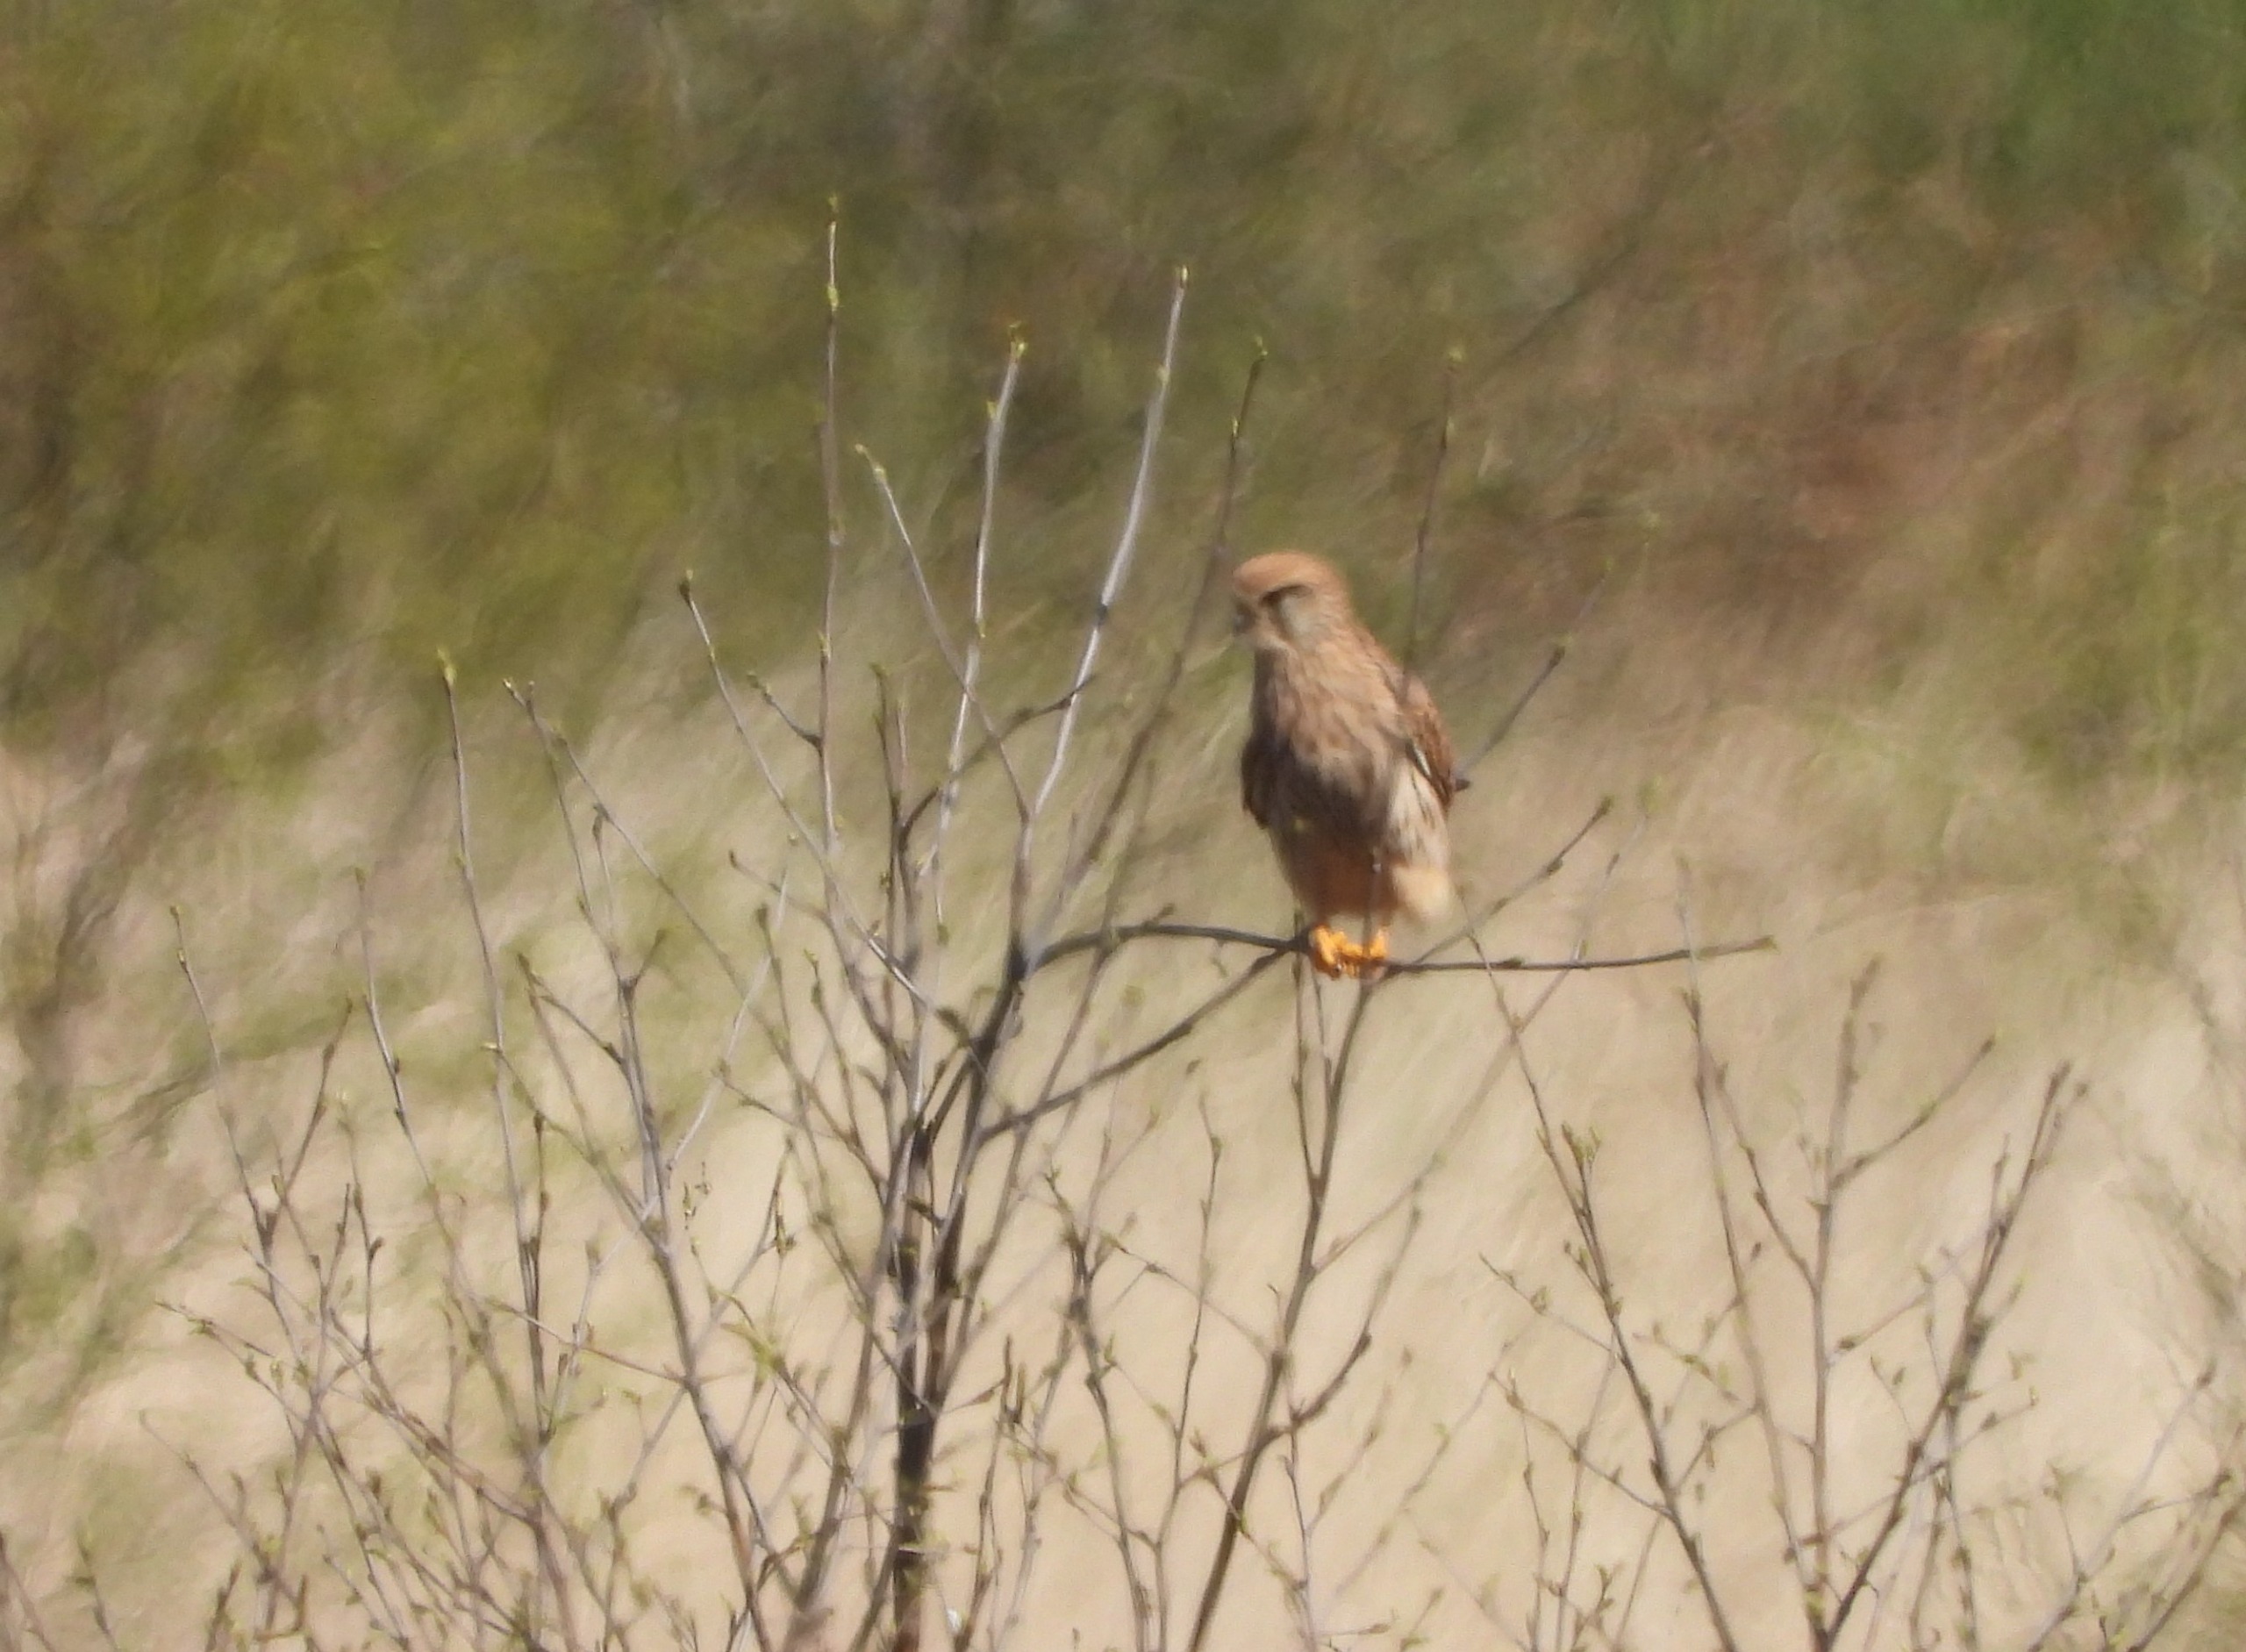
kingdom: Animalia
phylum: Chordata
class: Aves
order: Falconiformes
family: Falconidae
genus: Falco
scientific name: Falco tinnunculus
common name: Tårnfalk
